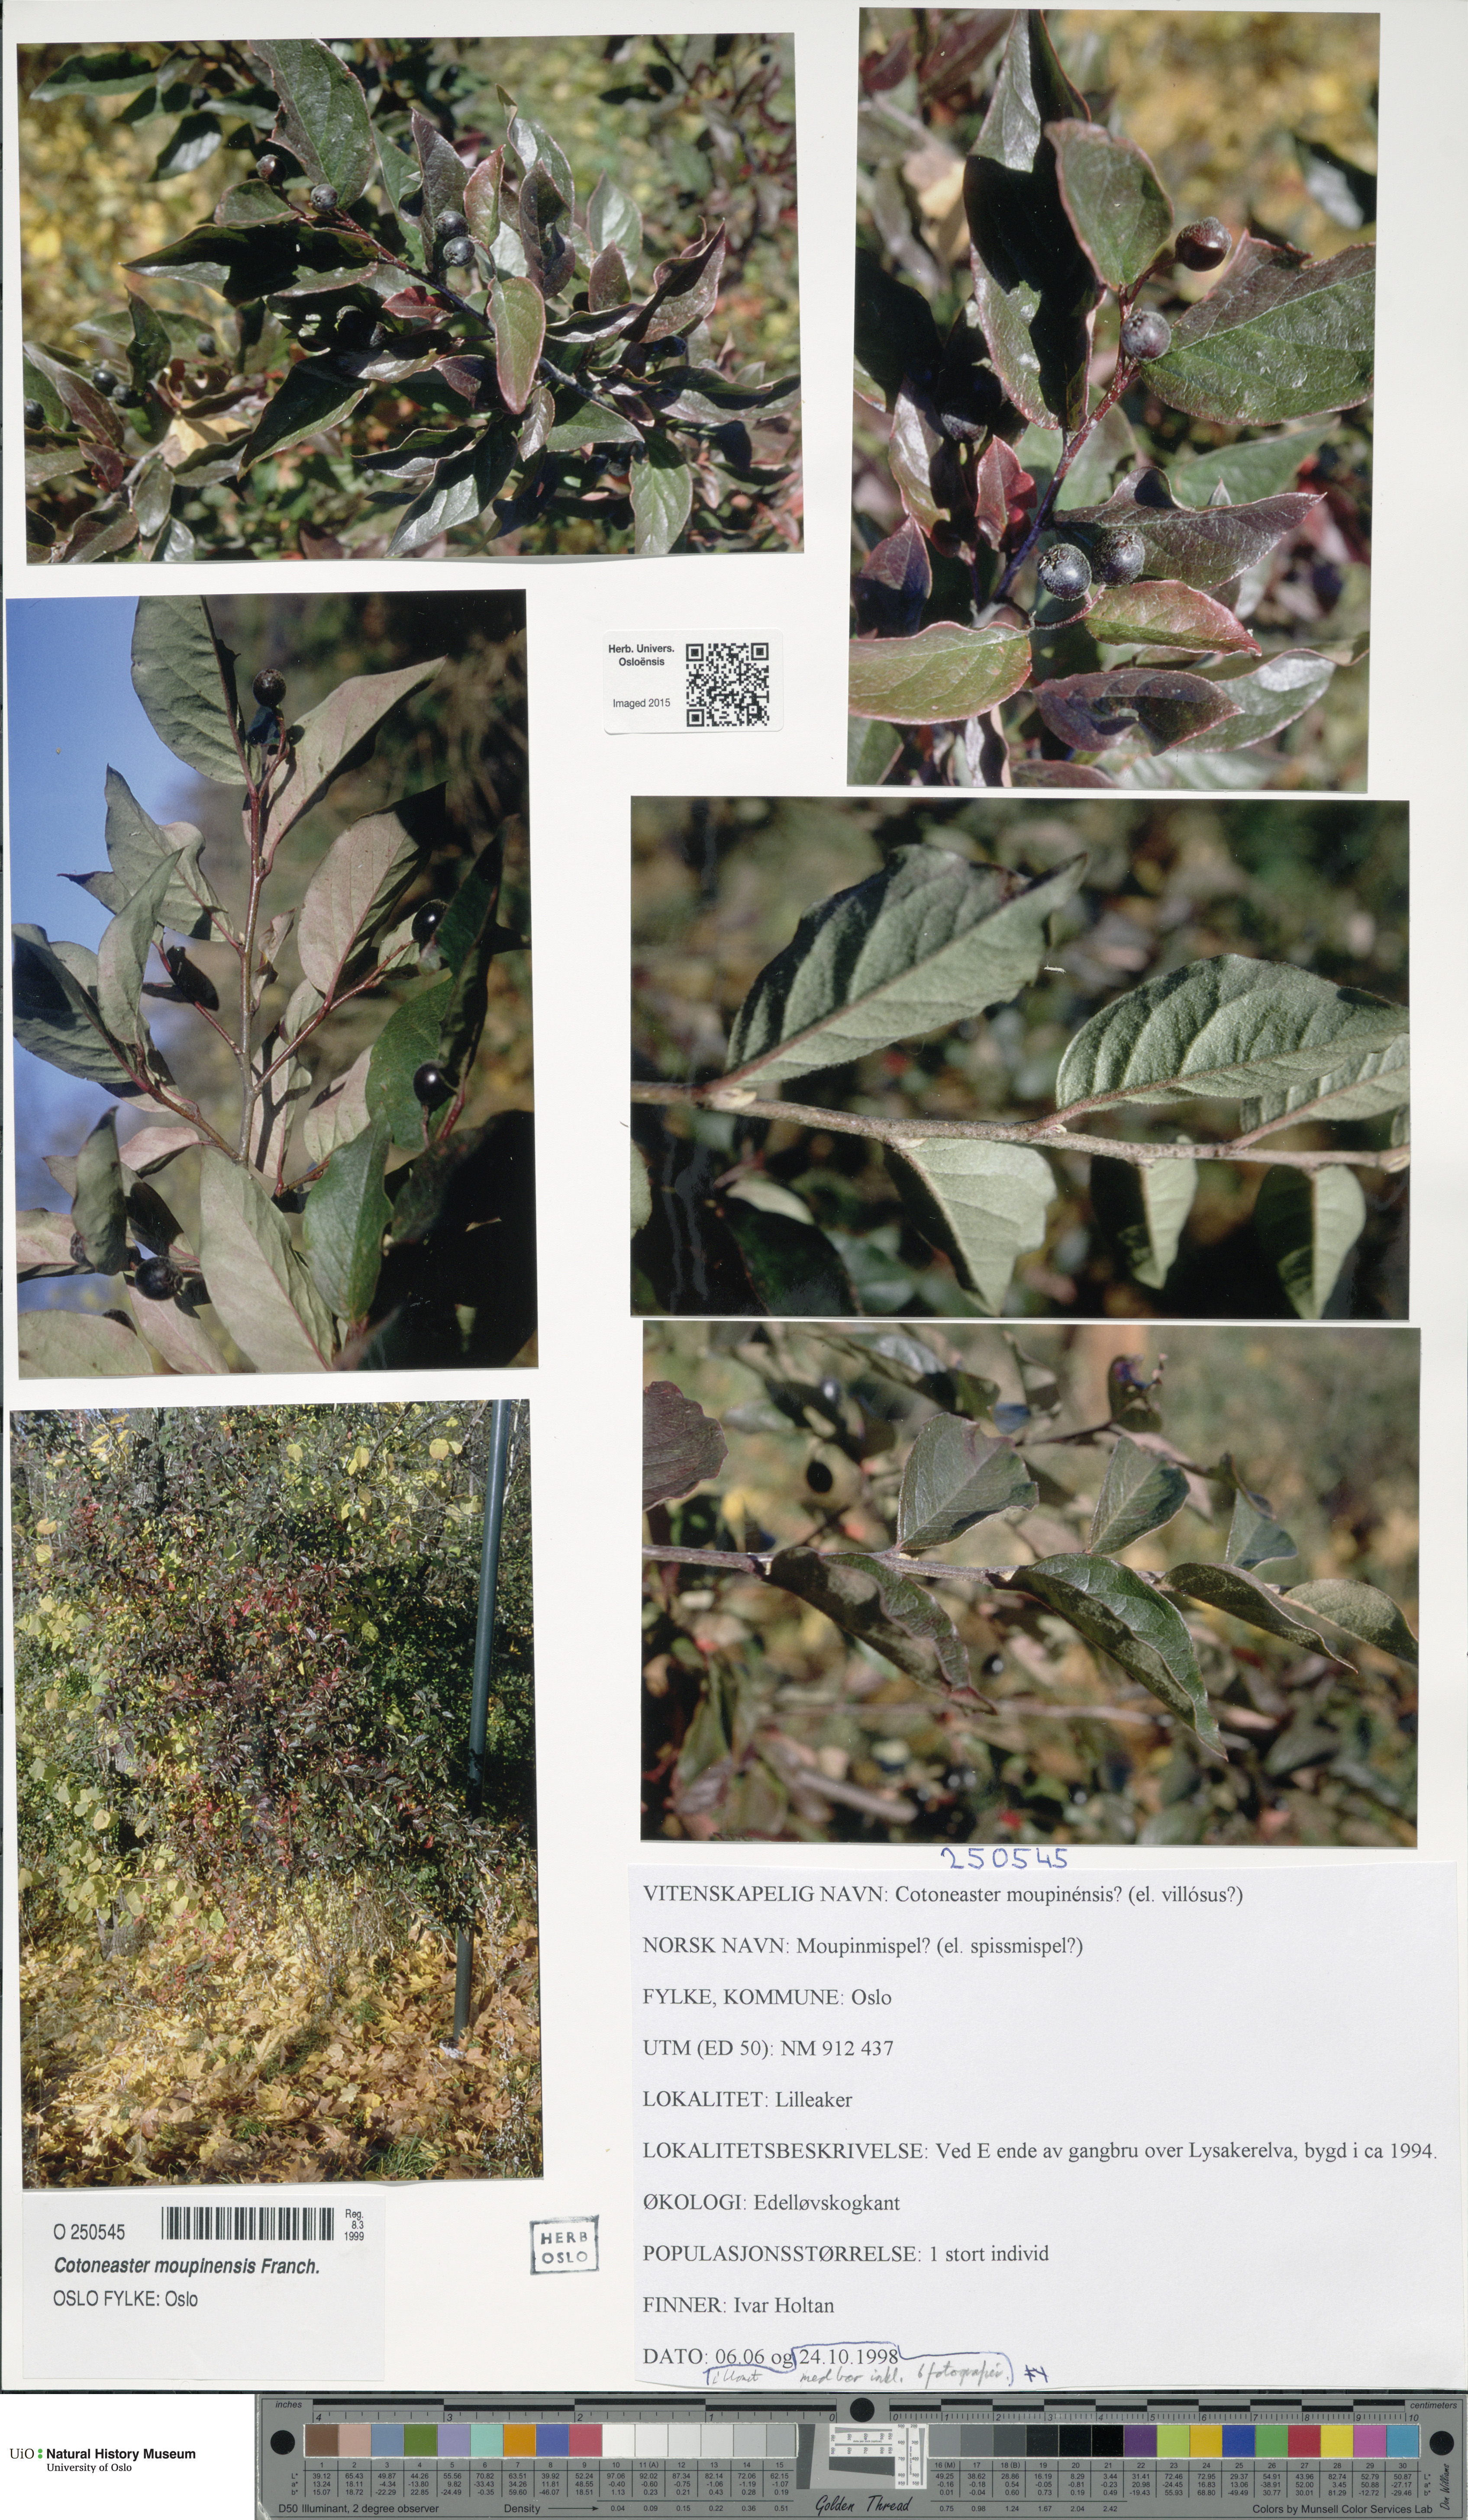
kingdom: Plantae
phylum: Tracheophyta
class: Magnoliopsida
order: Rosales
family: Rosaceae
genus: Cotoneaster
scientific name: Cotoneaster moupinensis
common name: Moupin cotoneaster
